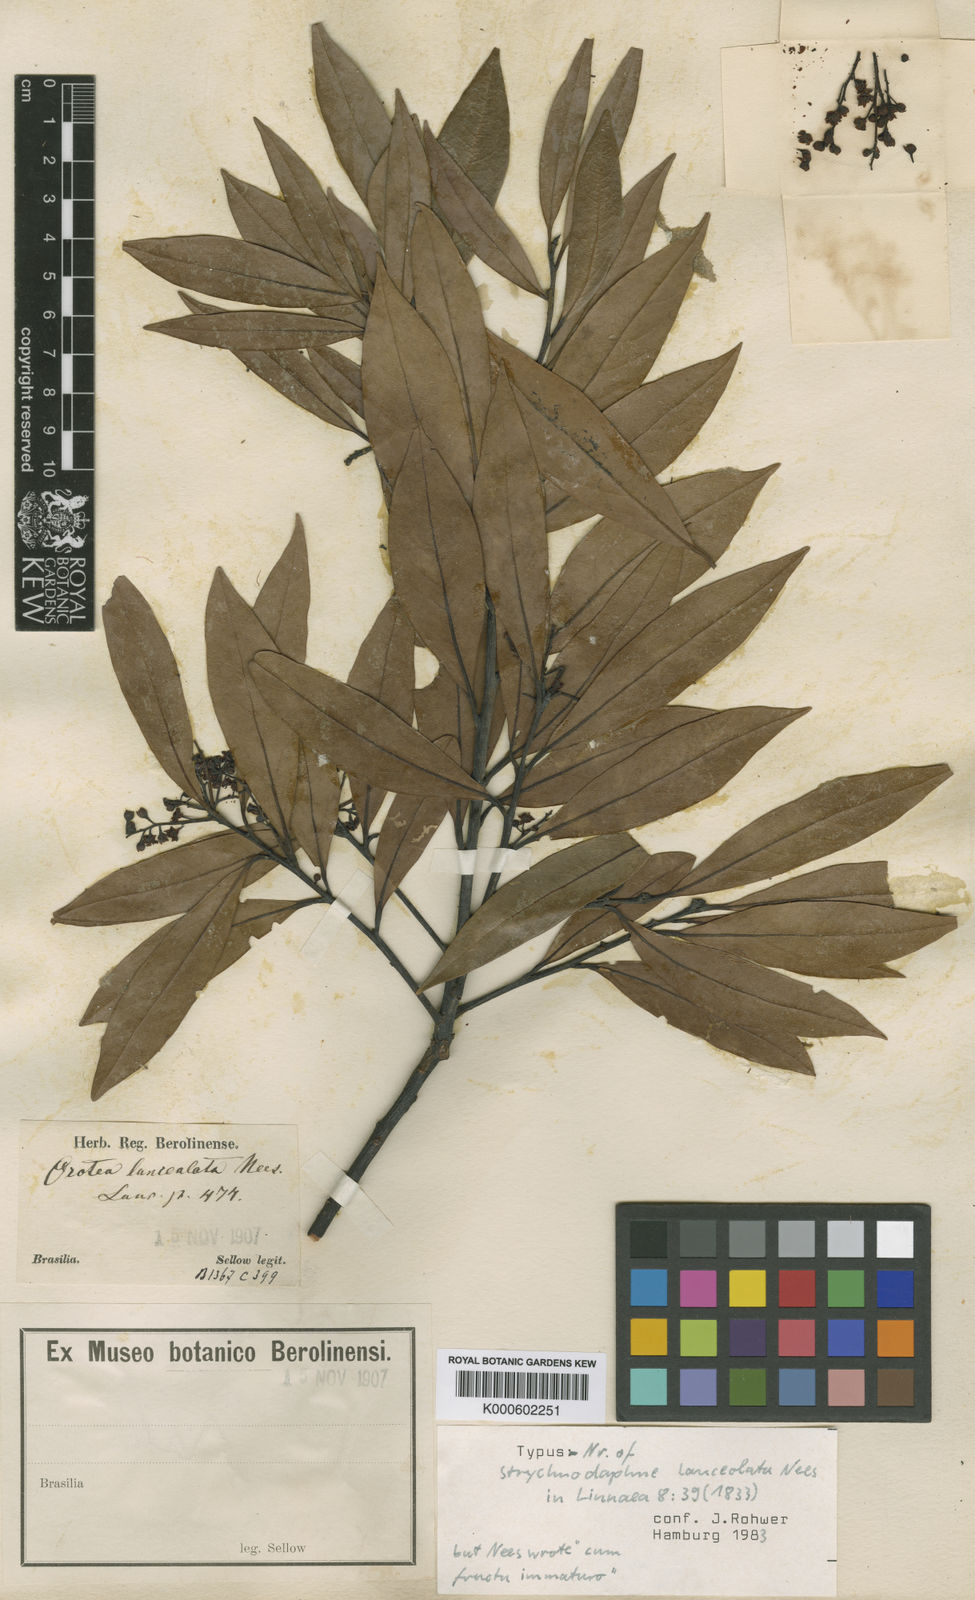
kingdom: Plantae
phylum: Tracheophyta
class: Magnoliopsida
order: Laurales
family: Lauraceae
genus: Phoebe
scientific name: Phoebe lanceolata
